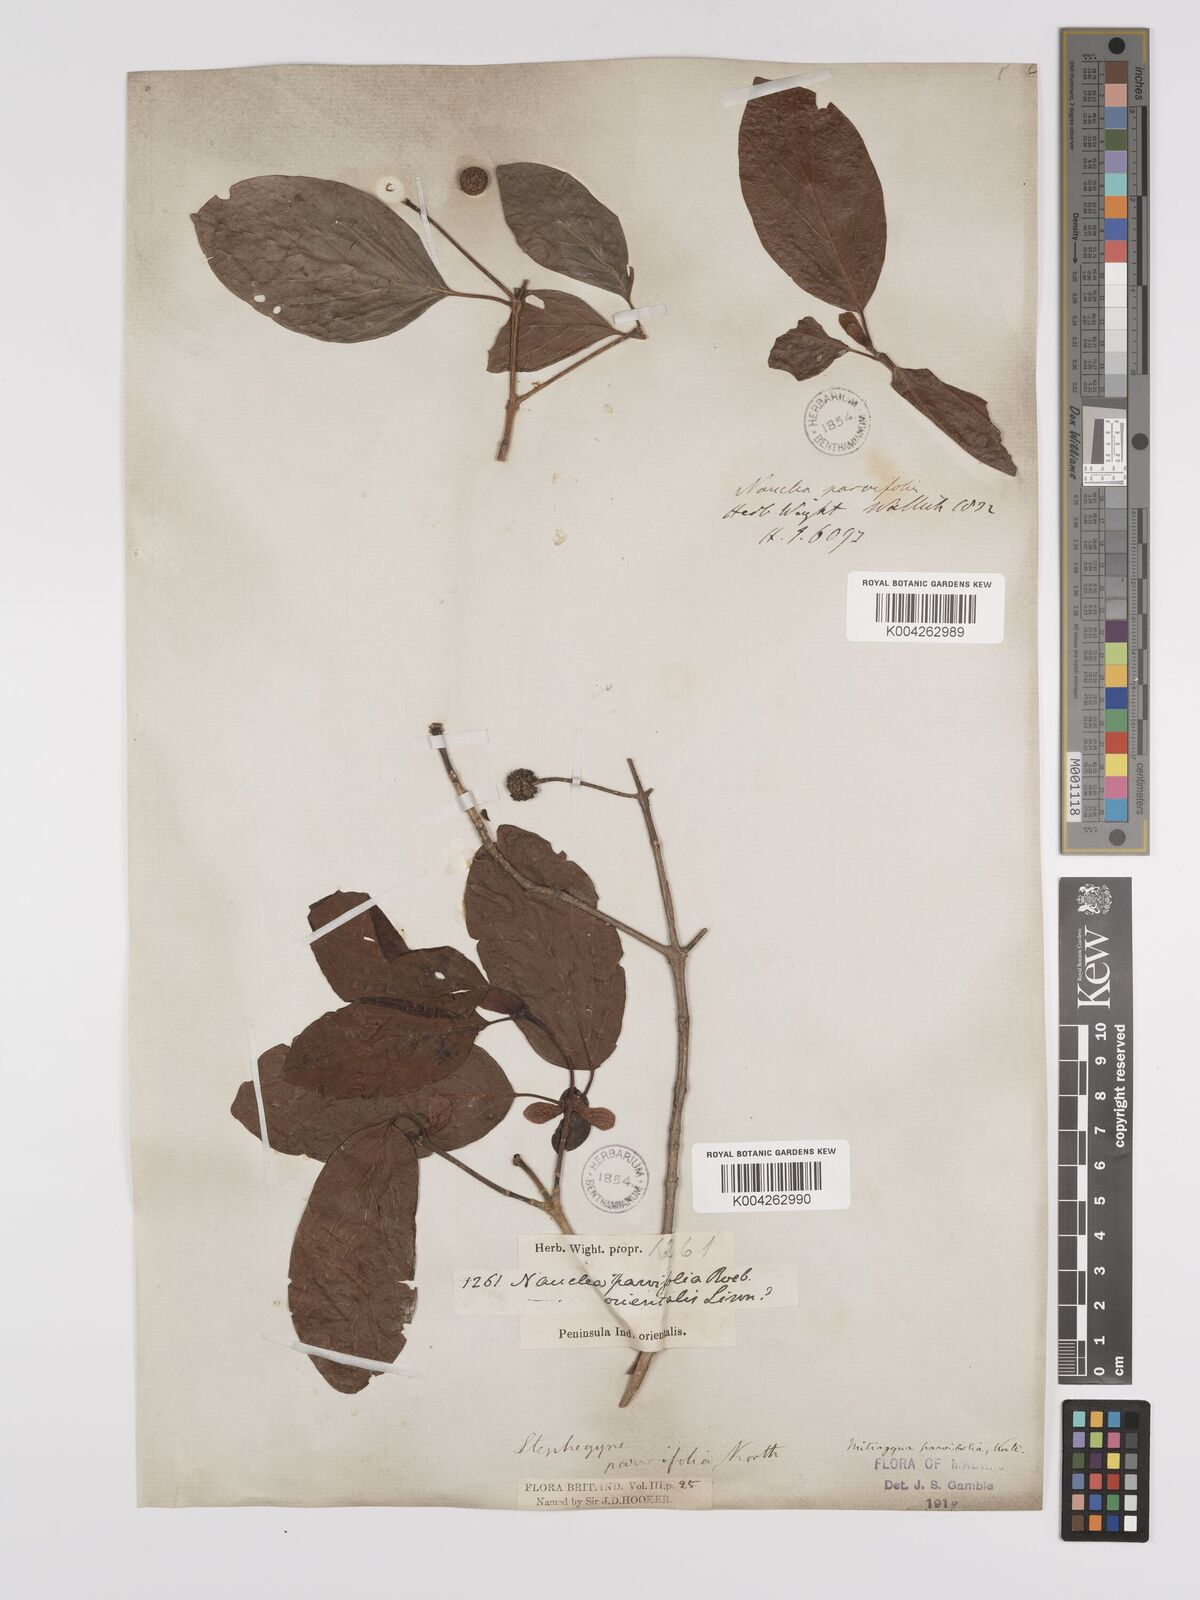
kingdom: Plantae
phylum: Tracheophyta
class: Magnoliopsida
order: Gentianales
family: Rubiaceae
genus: Mitragyna
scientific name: Mitragyna parvifolia
